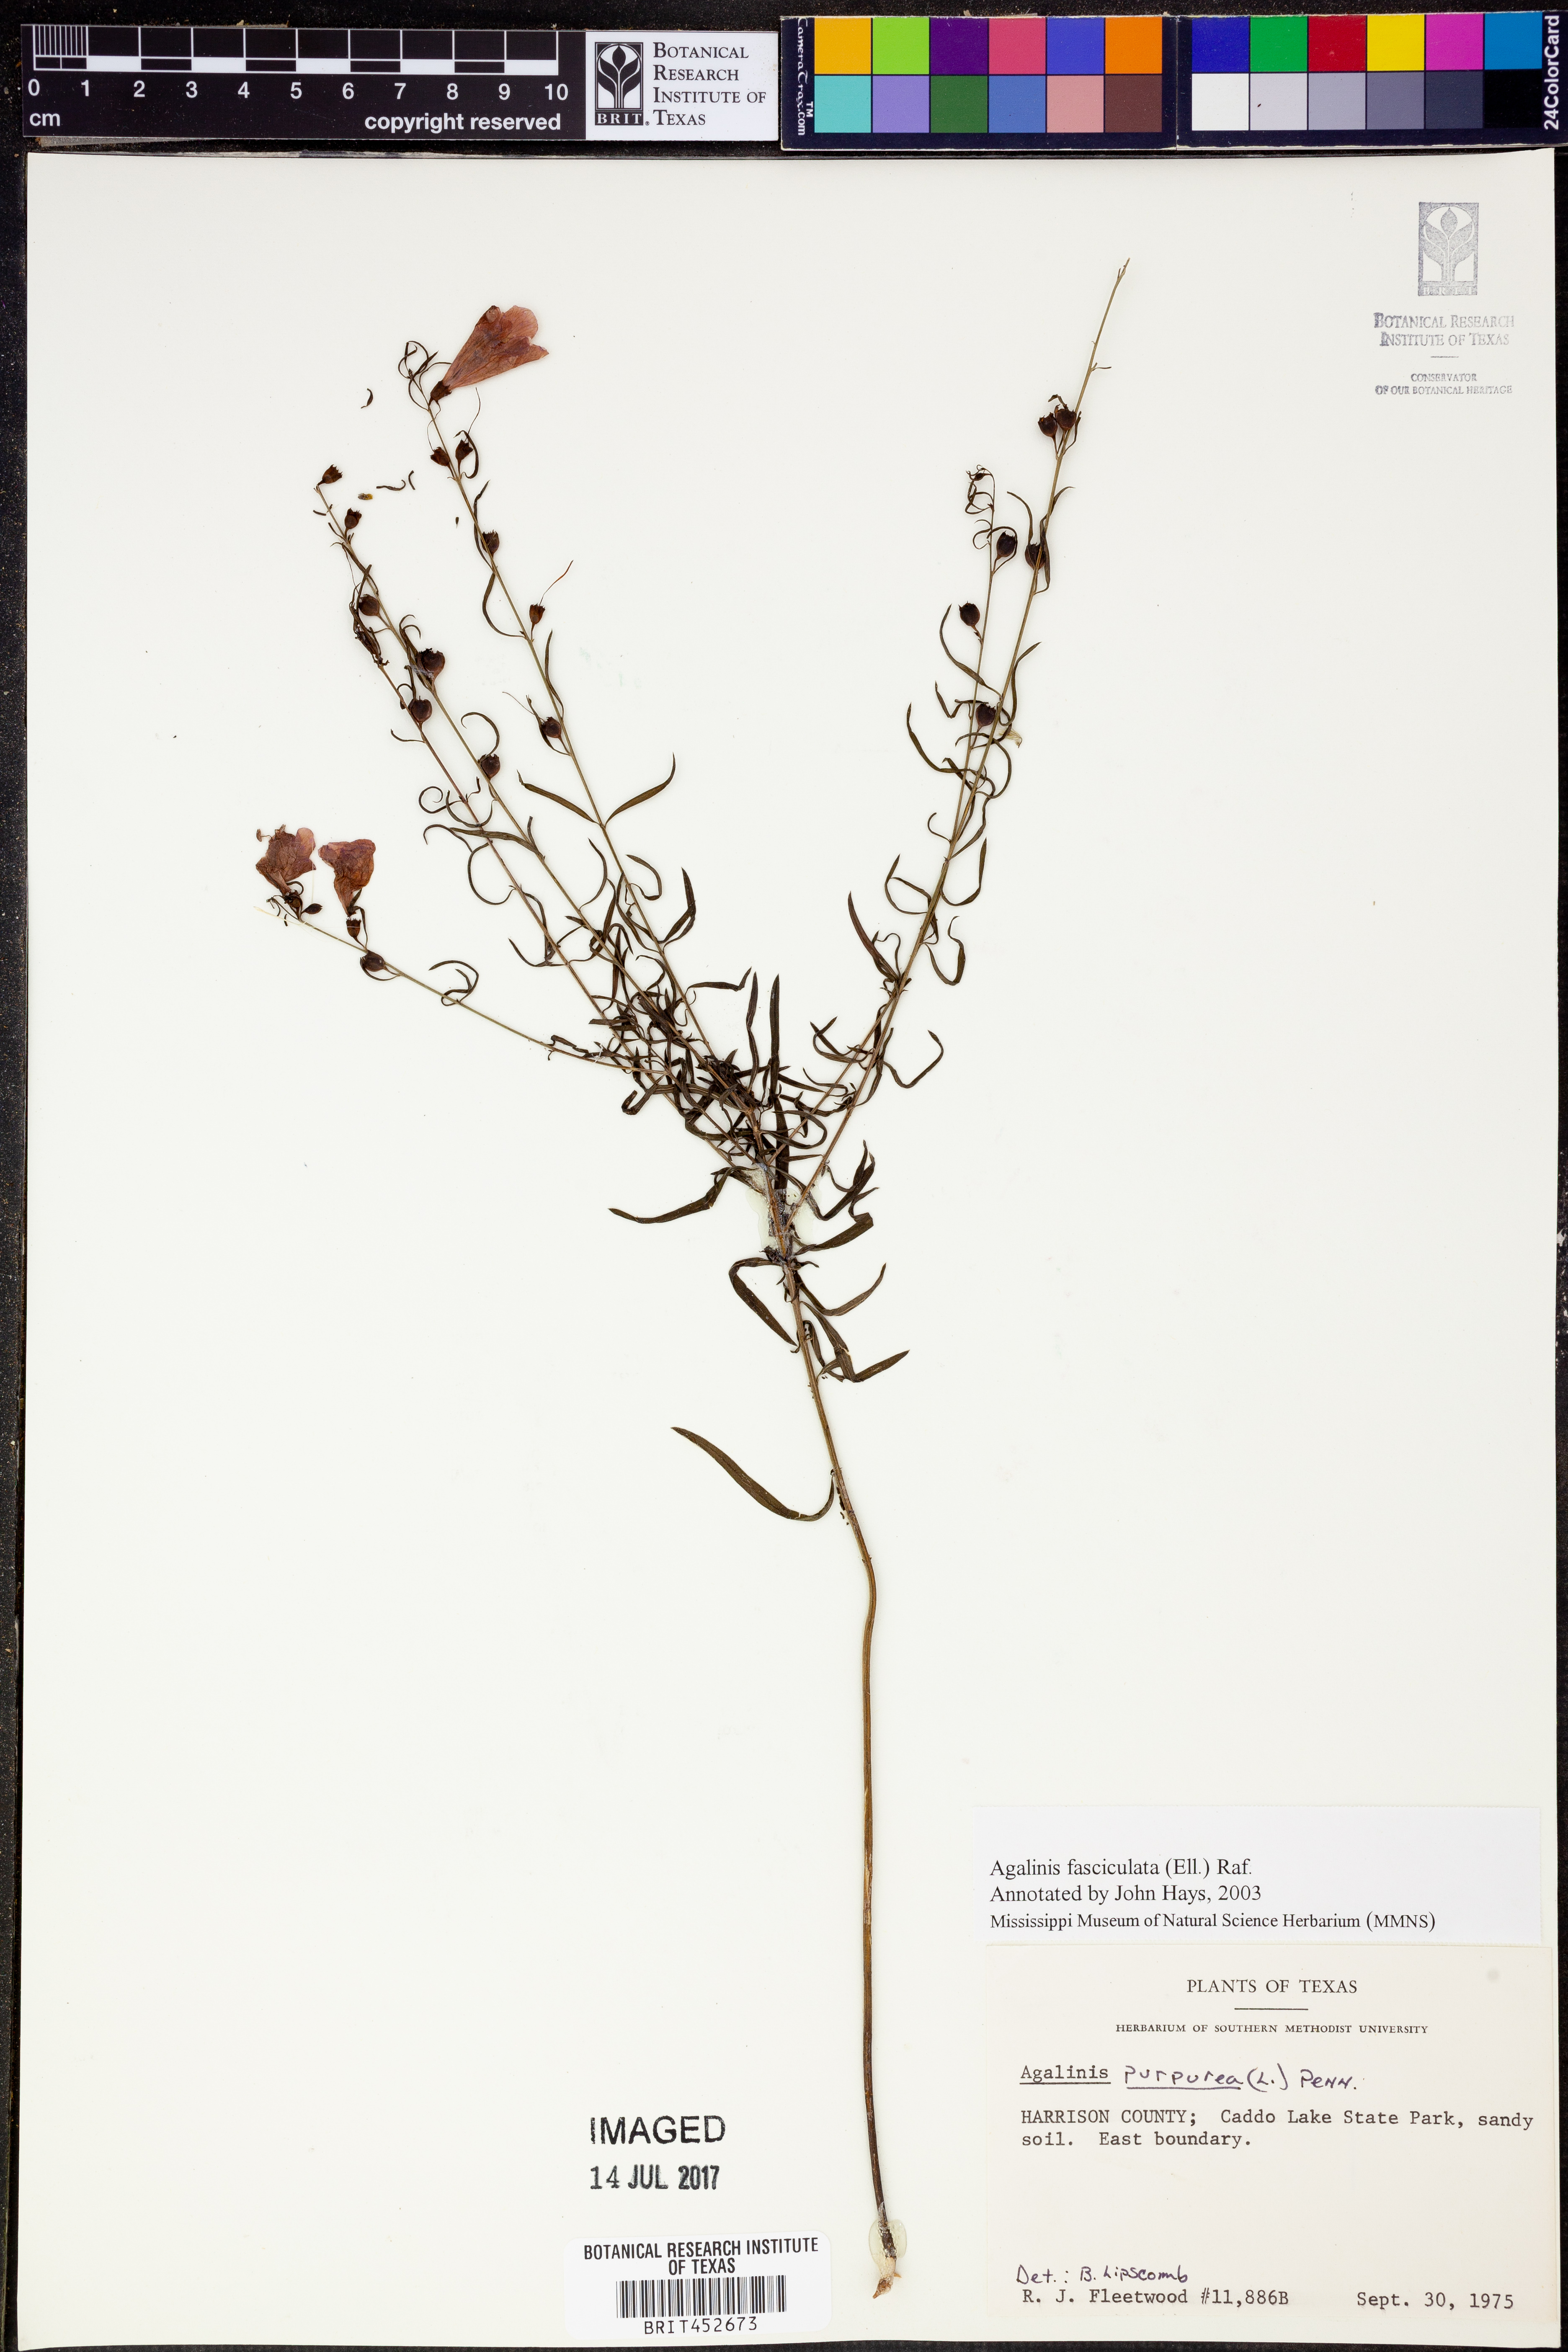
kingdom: Plantae
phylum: Tracheophyta
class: Magnoliopsida
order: Lamiales
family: Orobanchaceae
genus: Agalinis
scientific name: Agalinis fasciculata
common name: Beach false foxglove
